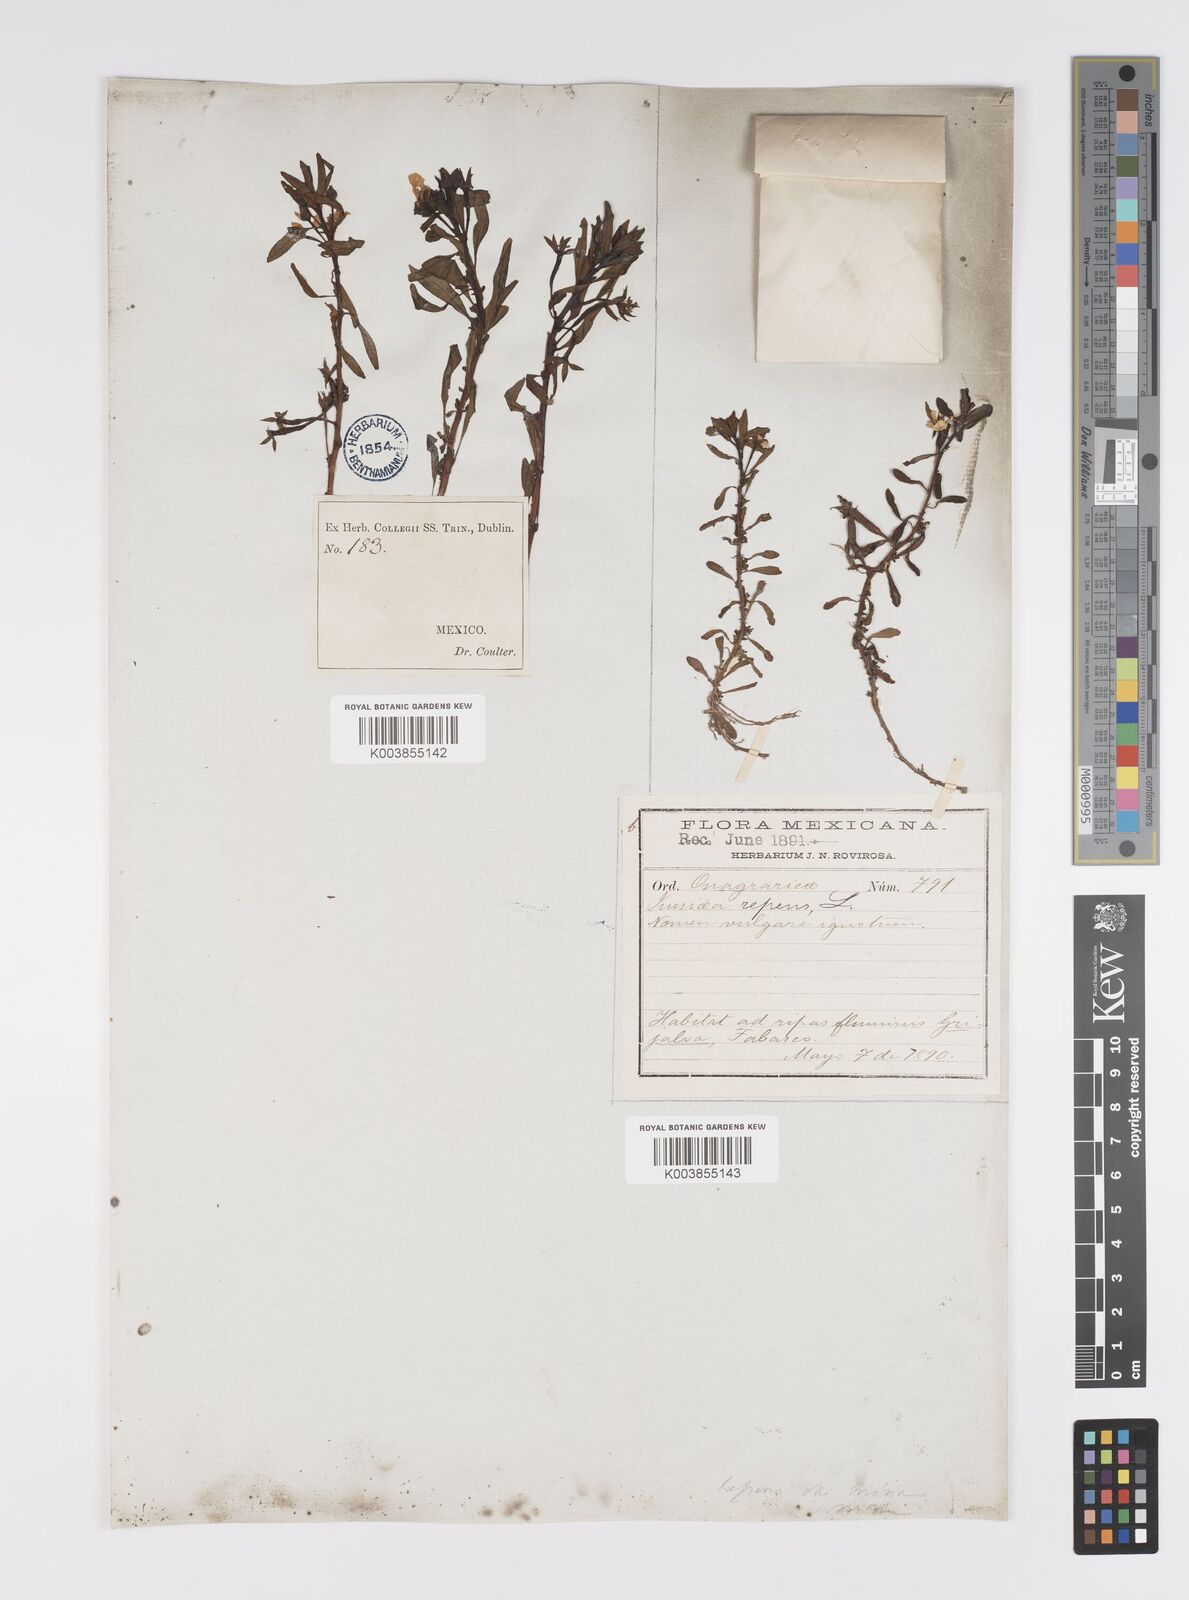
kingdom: Plantae
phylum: Tracheophyta
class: Magnoliopsida
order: Myrtales
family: Onagraceae
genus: Ludwigia
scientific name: Ludwigia adscendens
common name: Creeping water primrose
